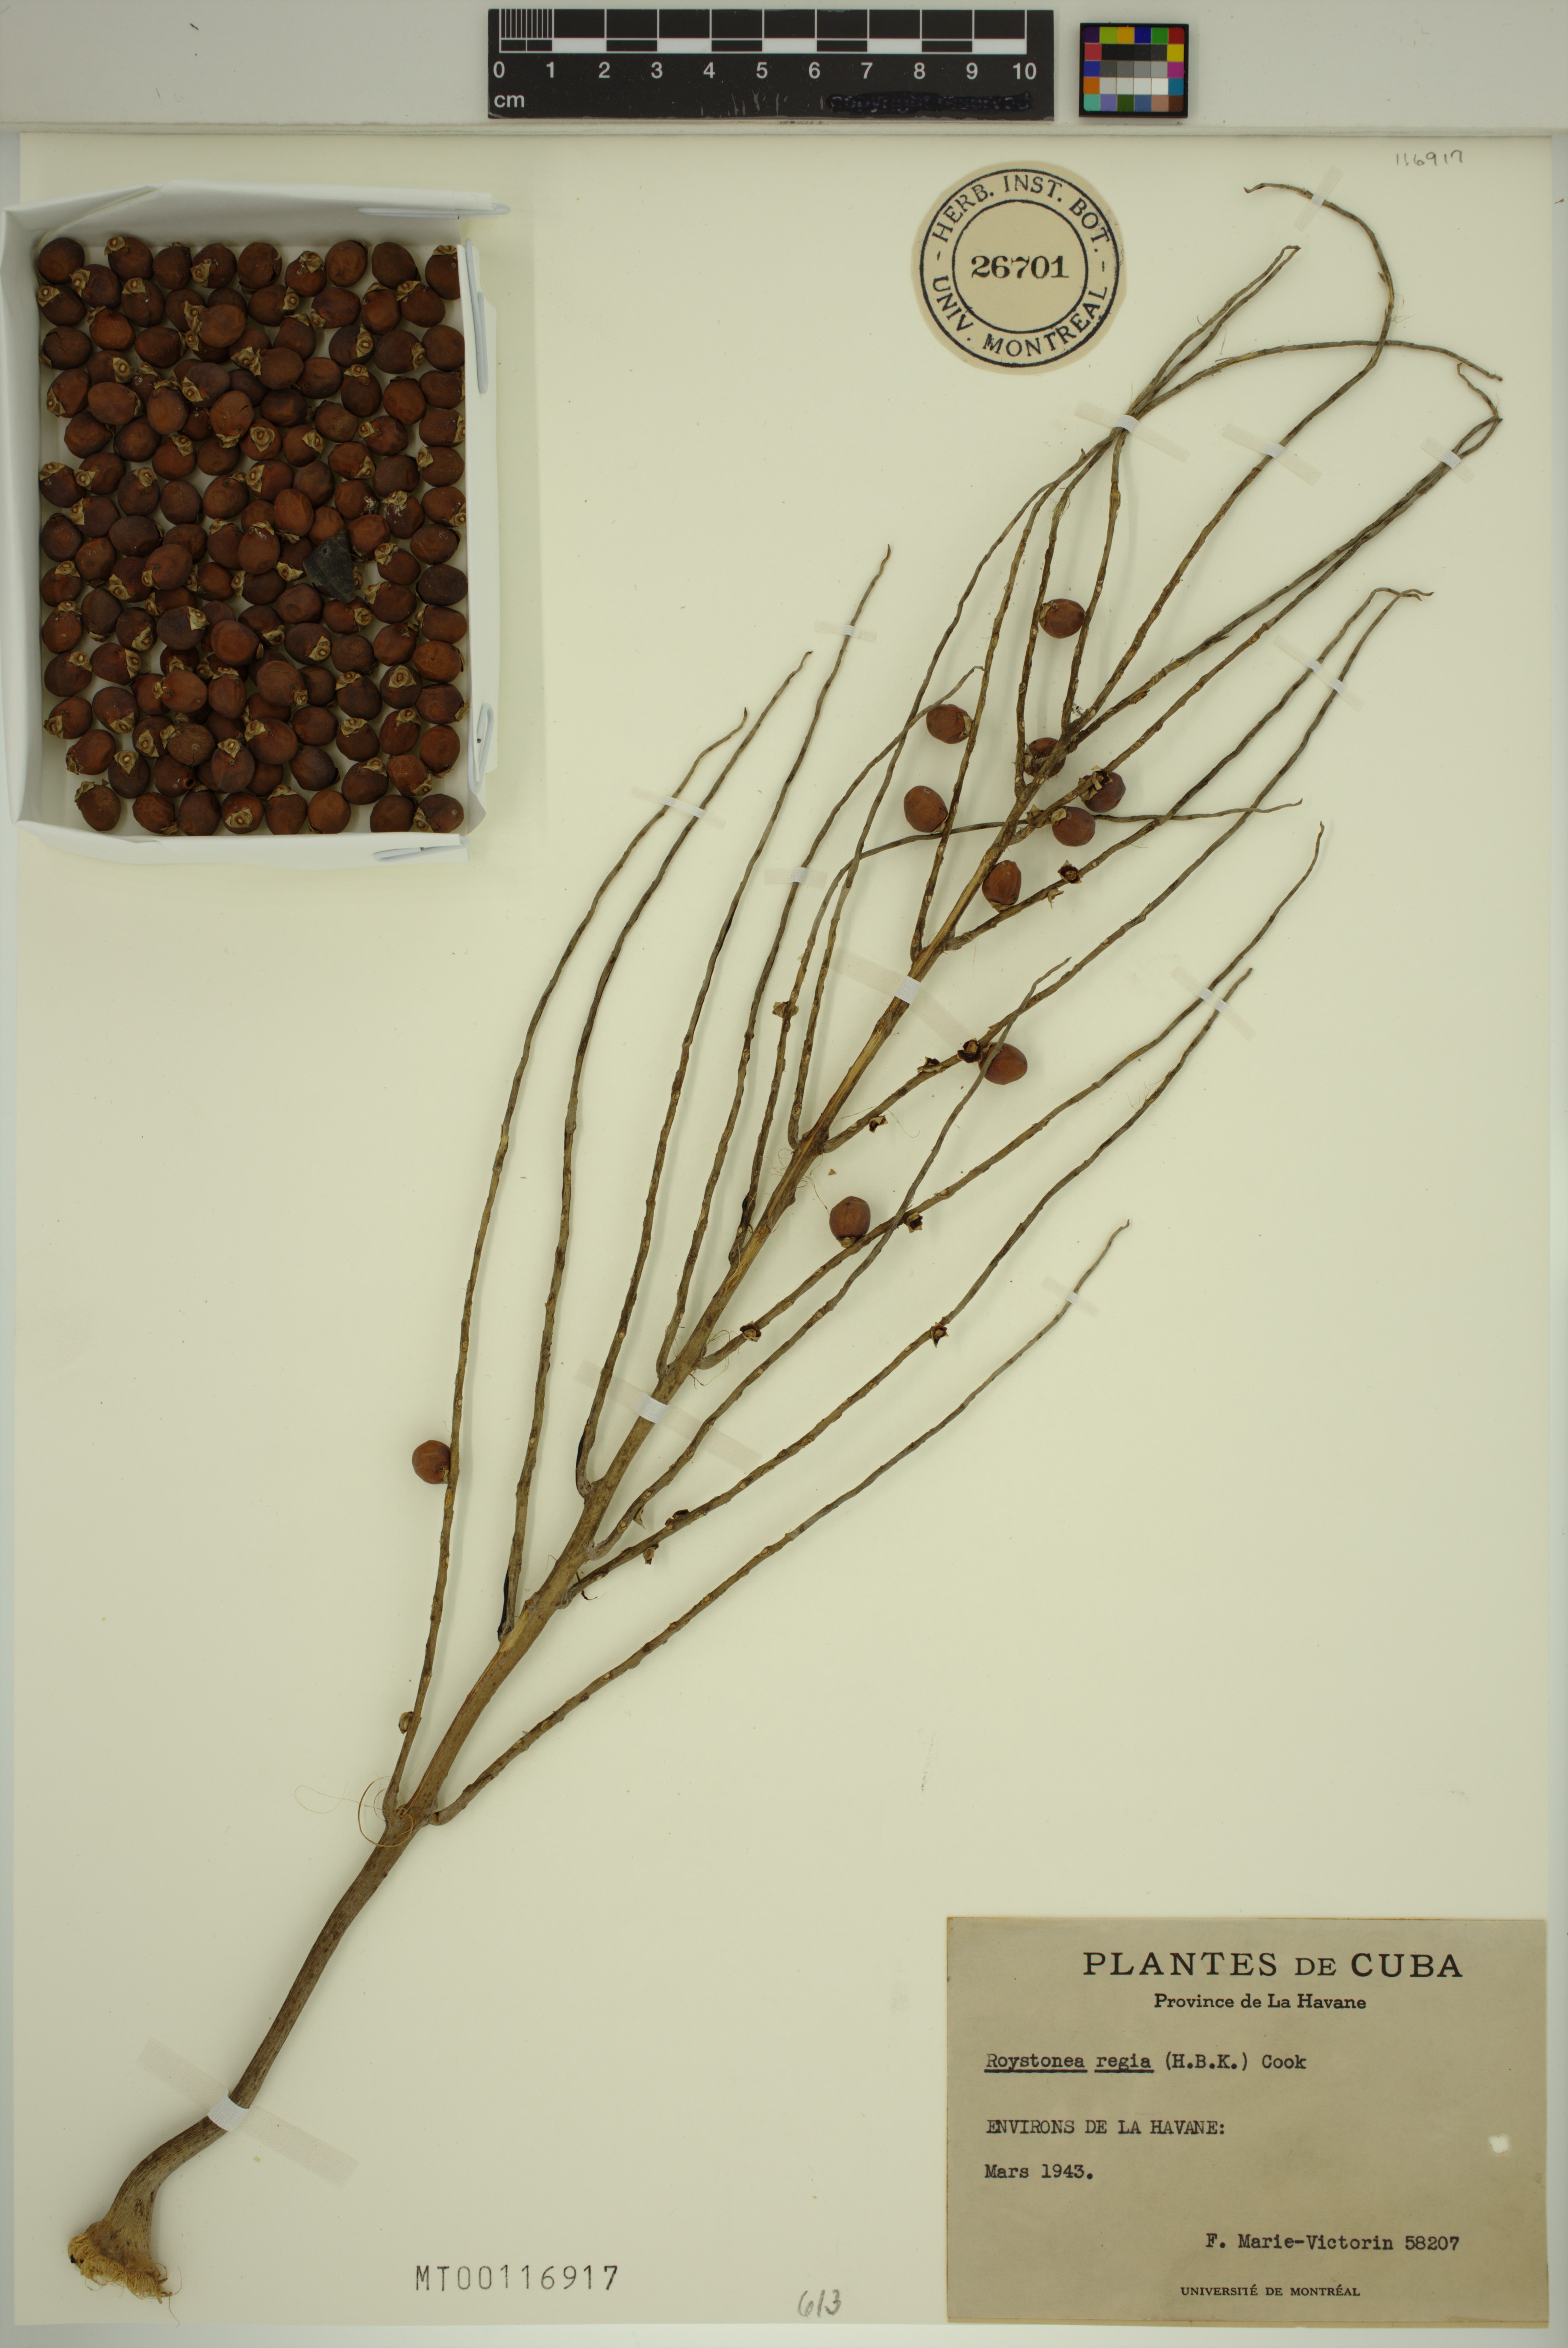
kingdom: Plantae
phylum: Tracheophyta
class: Liliopsida
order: Arecales
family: Arecaceae
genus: Roystonea
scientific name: Roystonea regia
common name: Florida royal palm
